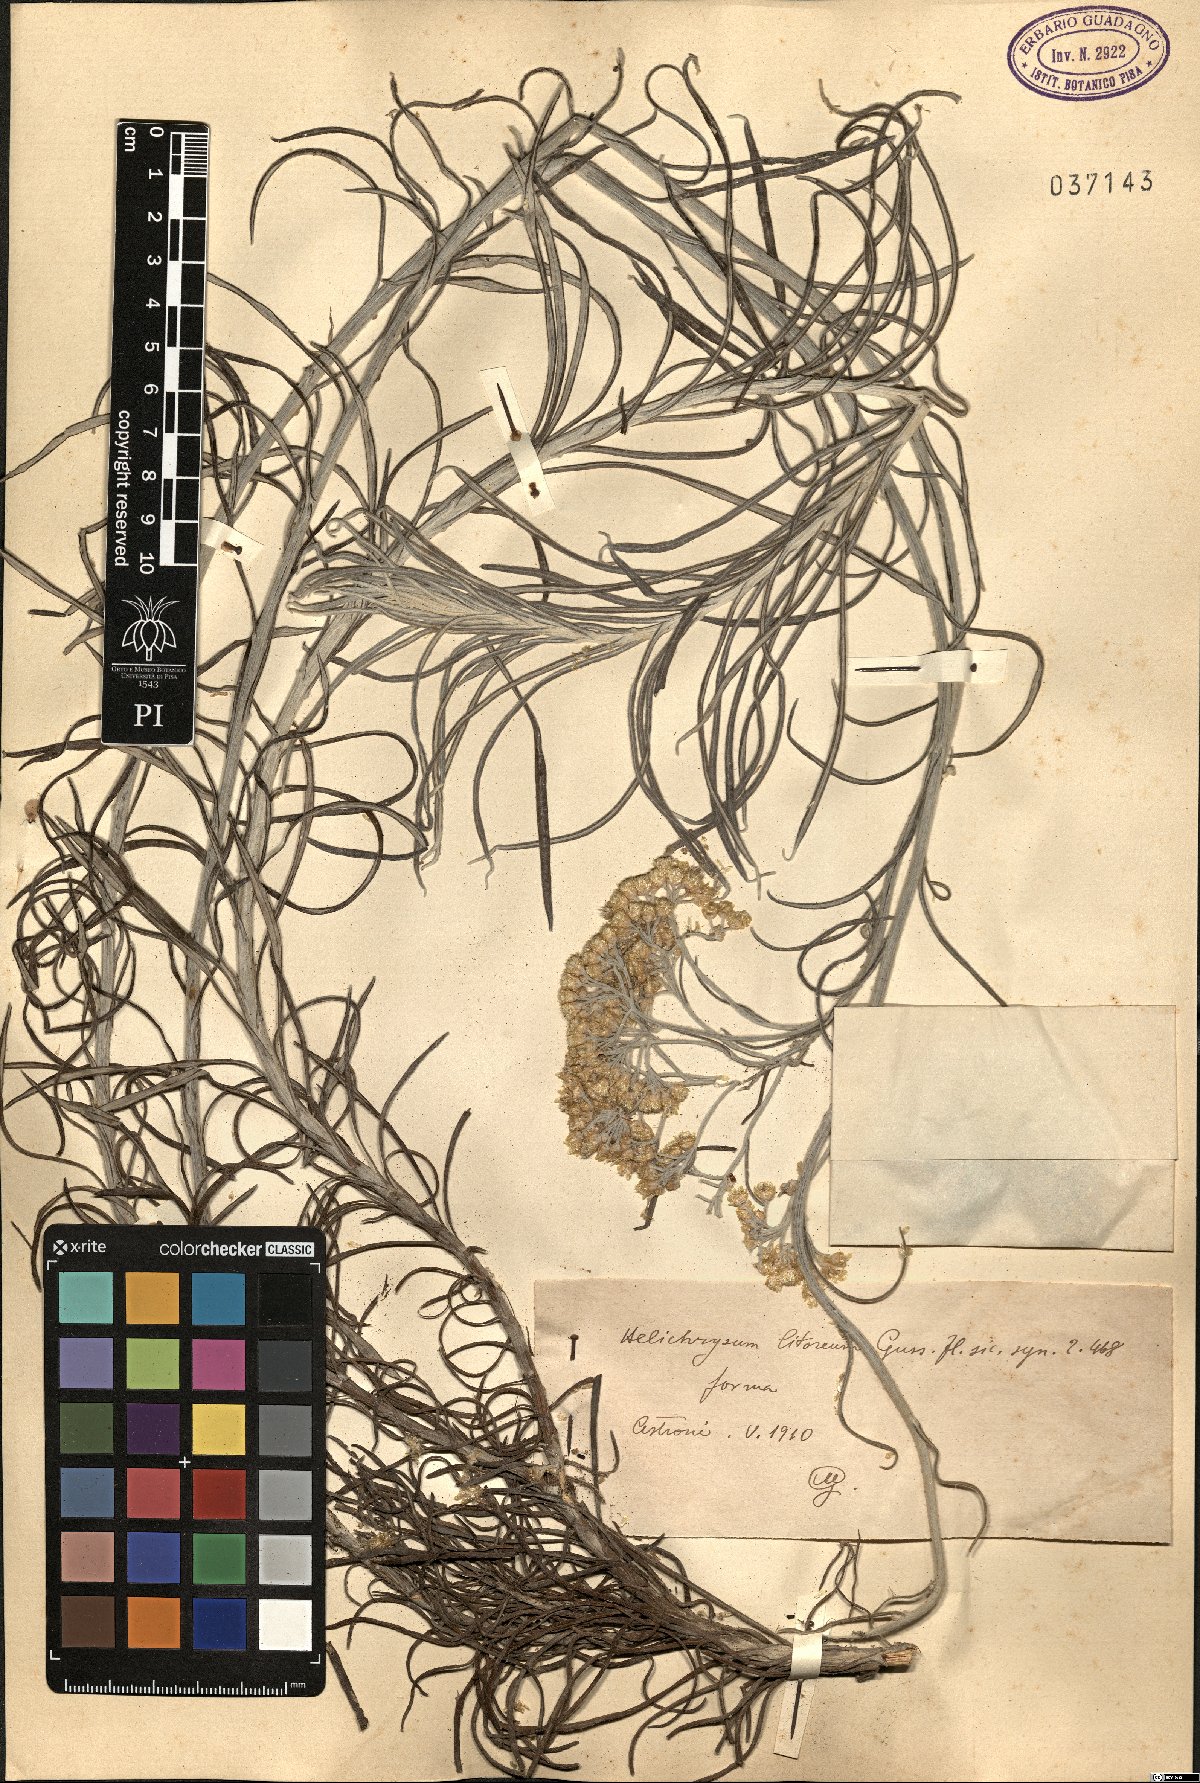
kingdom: Plantae
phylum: Tracheophyta
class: Magnoliopsida
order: Asterales
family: Asteraceae
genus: Helichrysum
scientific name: Helichrysum litoreum
